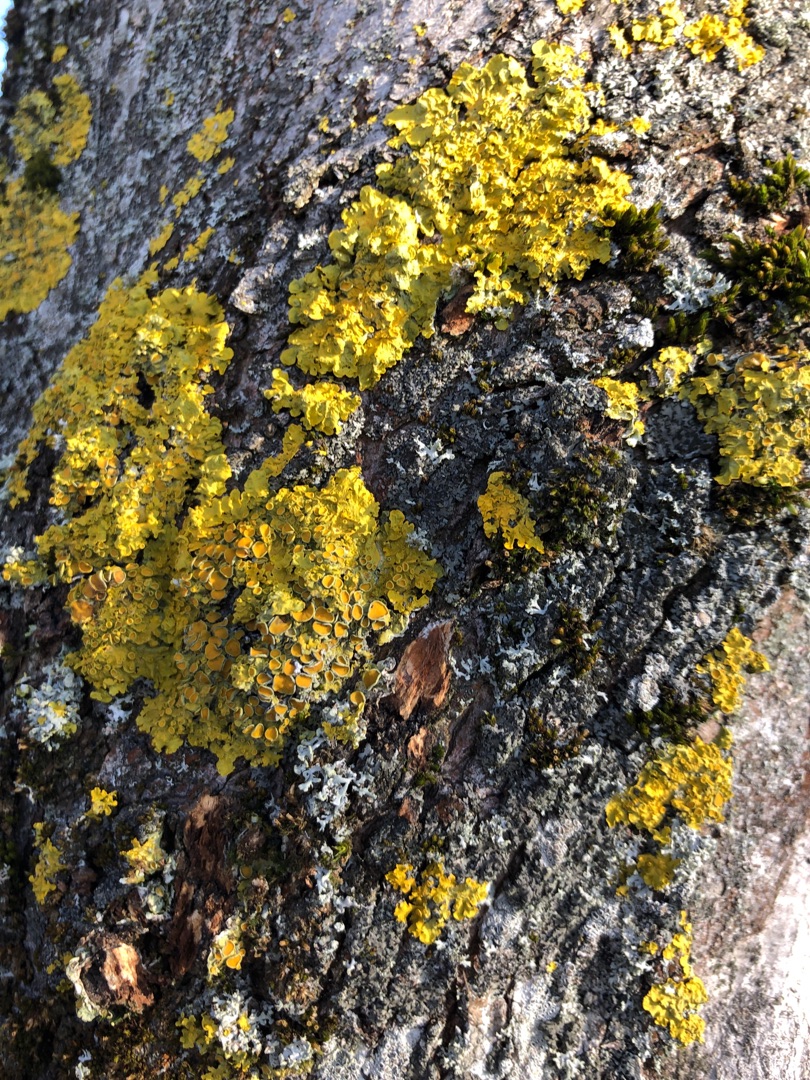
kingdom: Fungi
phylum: Ascomycota
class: Lecanoromycetes
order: Teloschistales
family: Teloschistaceae
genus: Xanthoria
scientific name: Xanthoria parietina
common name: Almindelig væggelav
